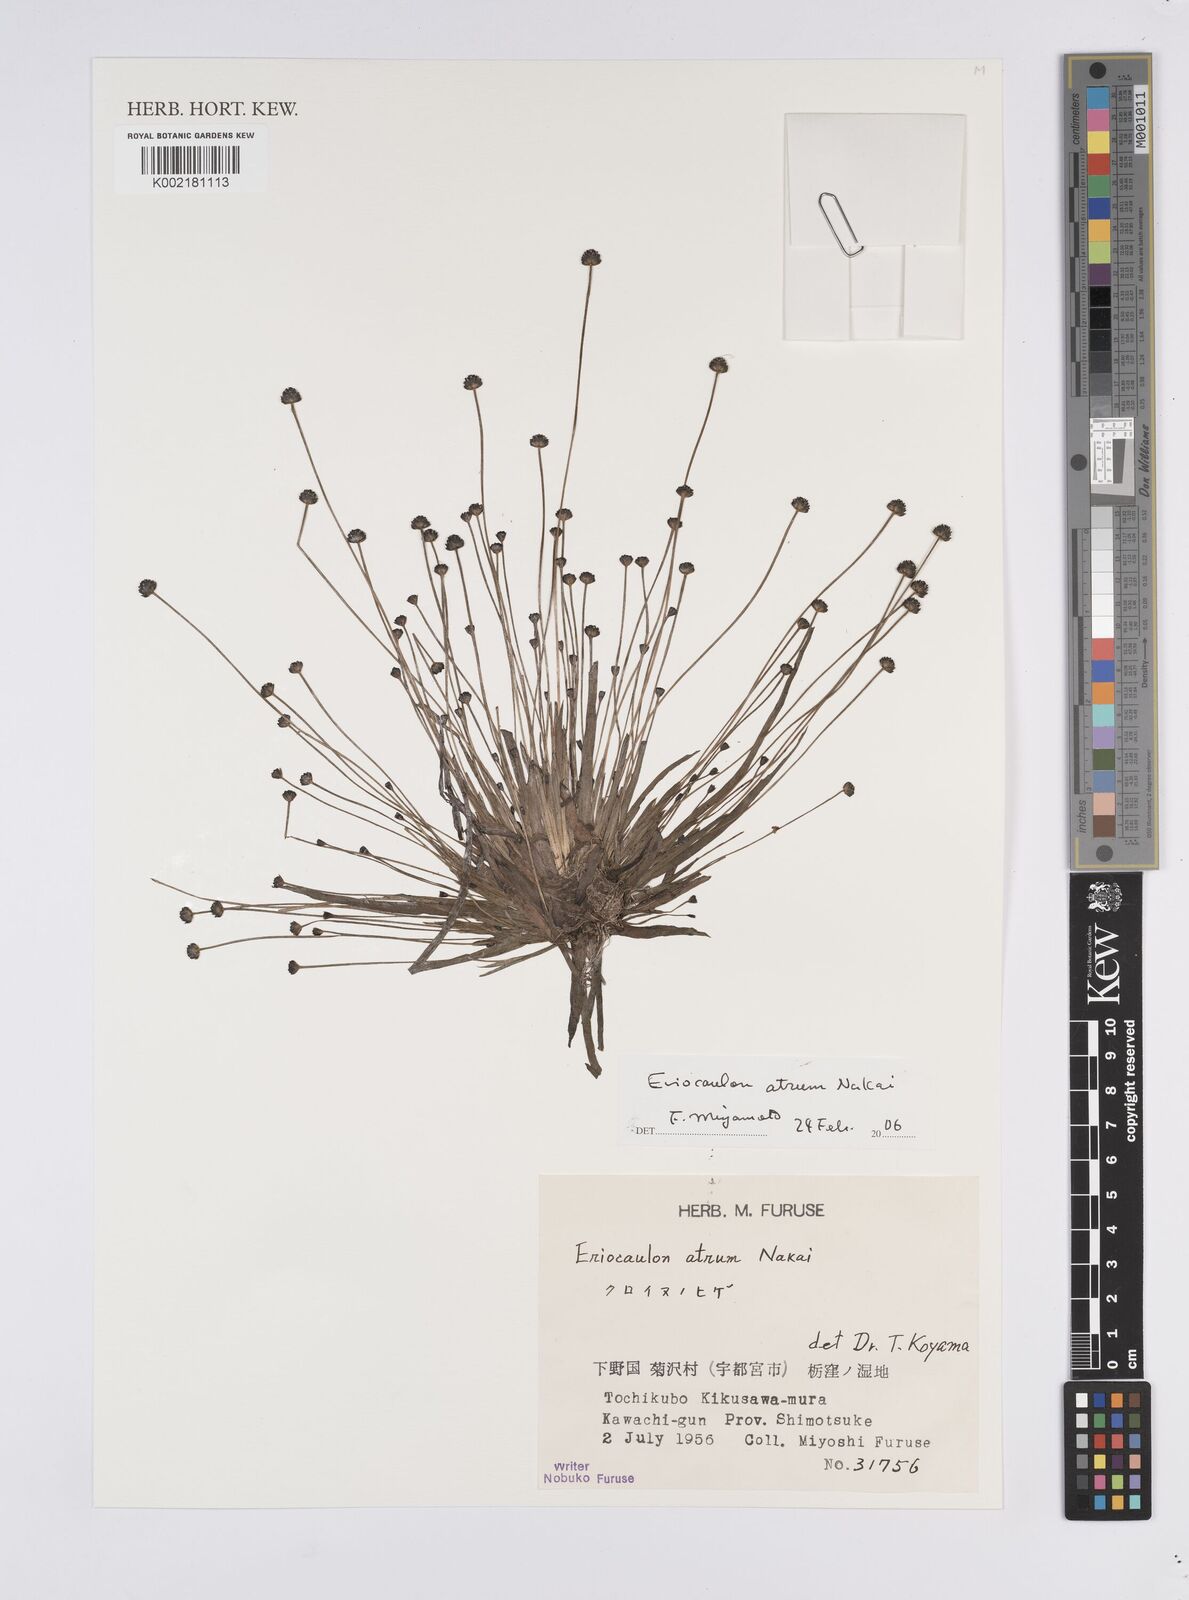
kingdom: Plantae
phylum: Tracheophyta
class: Liliopsida
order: Poales
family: Eriocaulaceae
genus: Eriocaulon
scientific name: Eriocaulon atrum
